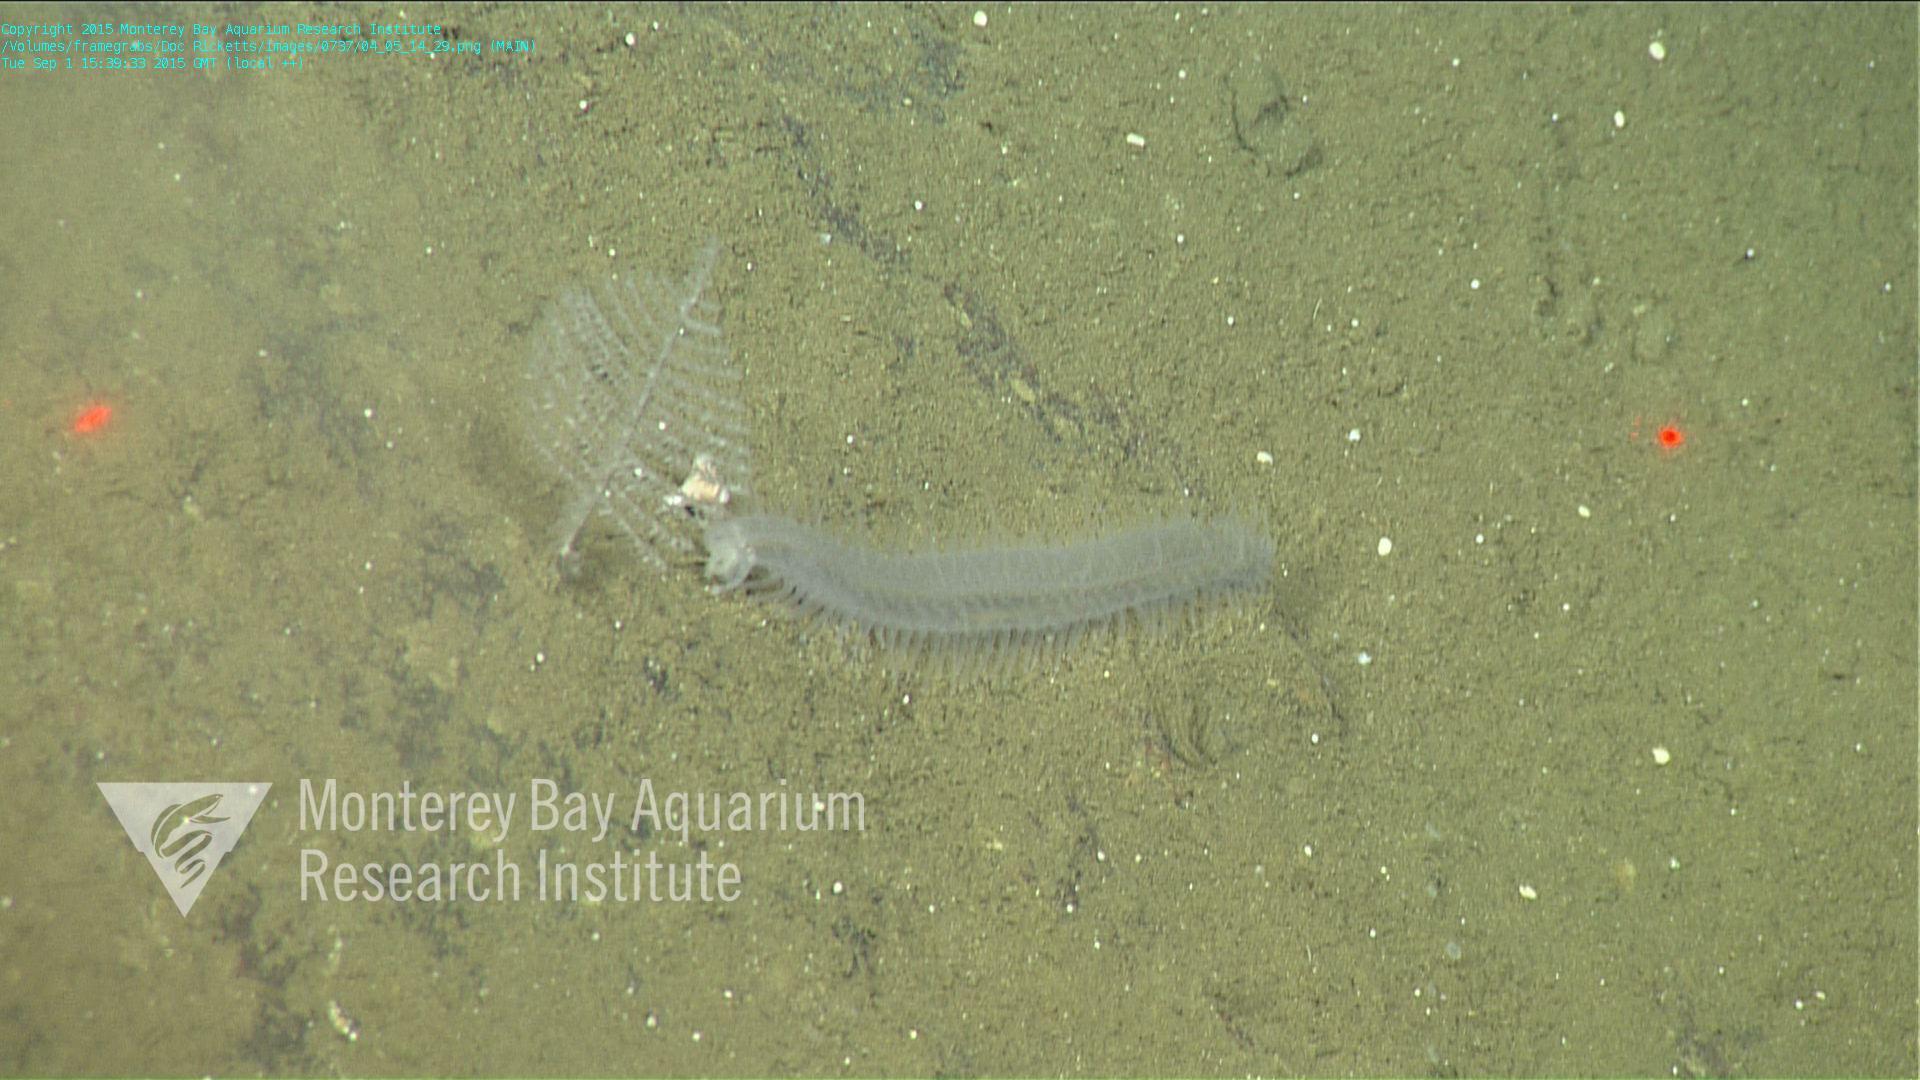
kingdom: Animalia
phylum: Cnidaria
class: Anthozoa
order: Antipatharia
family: Schizopathidae
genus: Bathypathes
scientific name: Bathypathes
